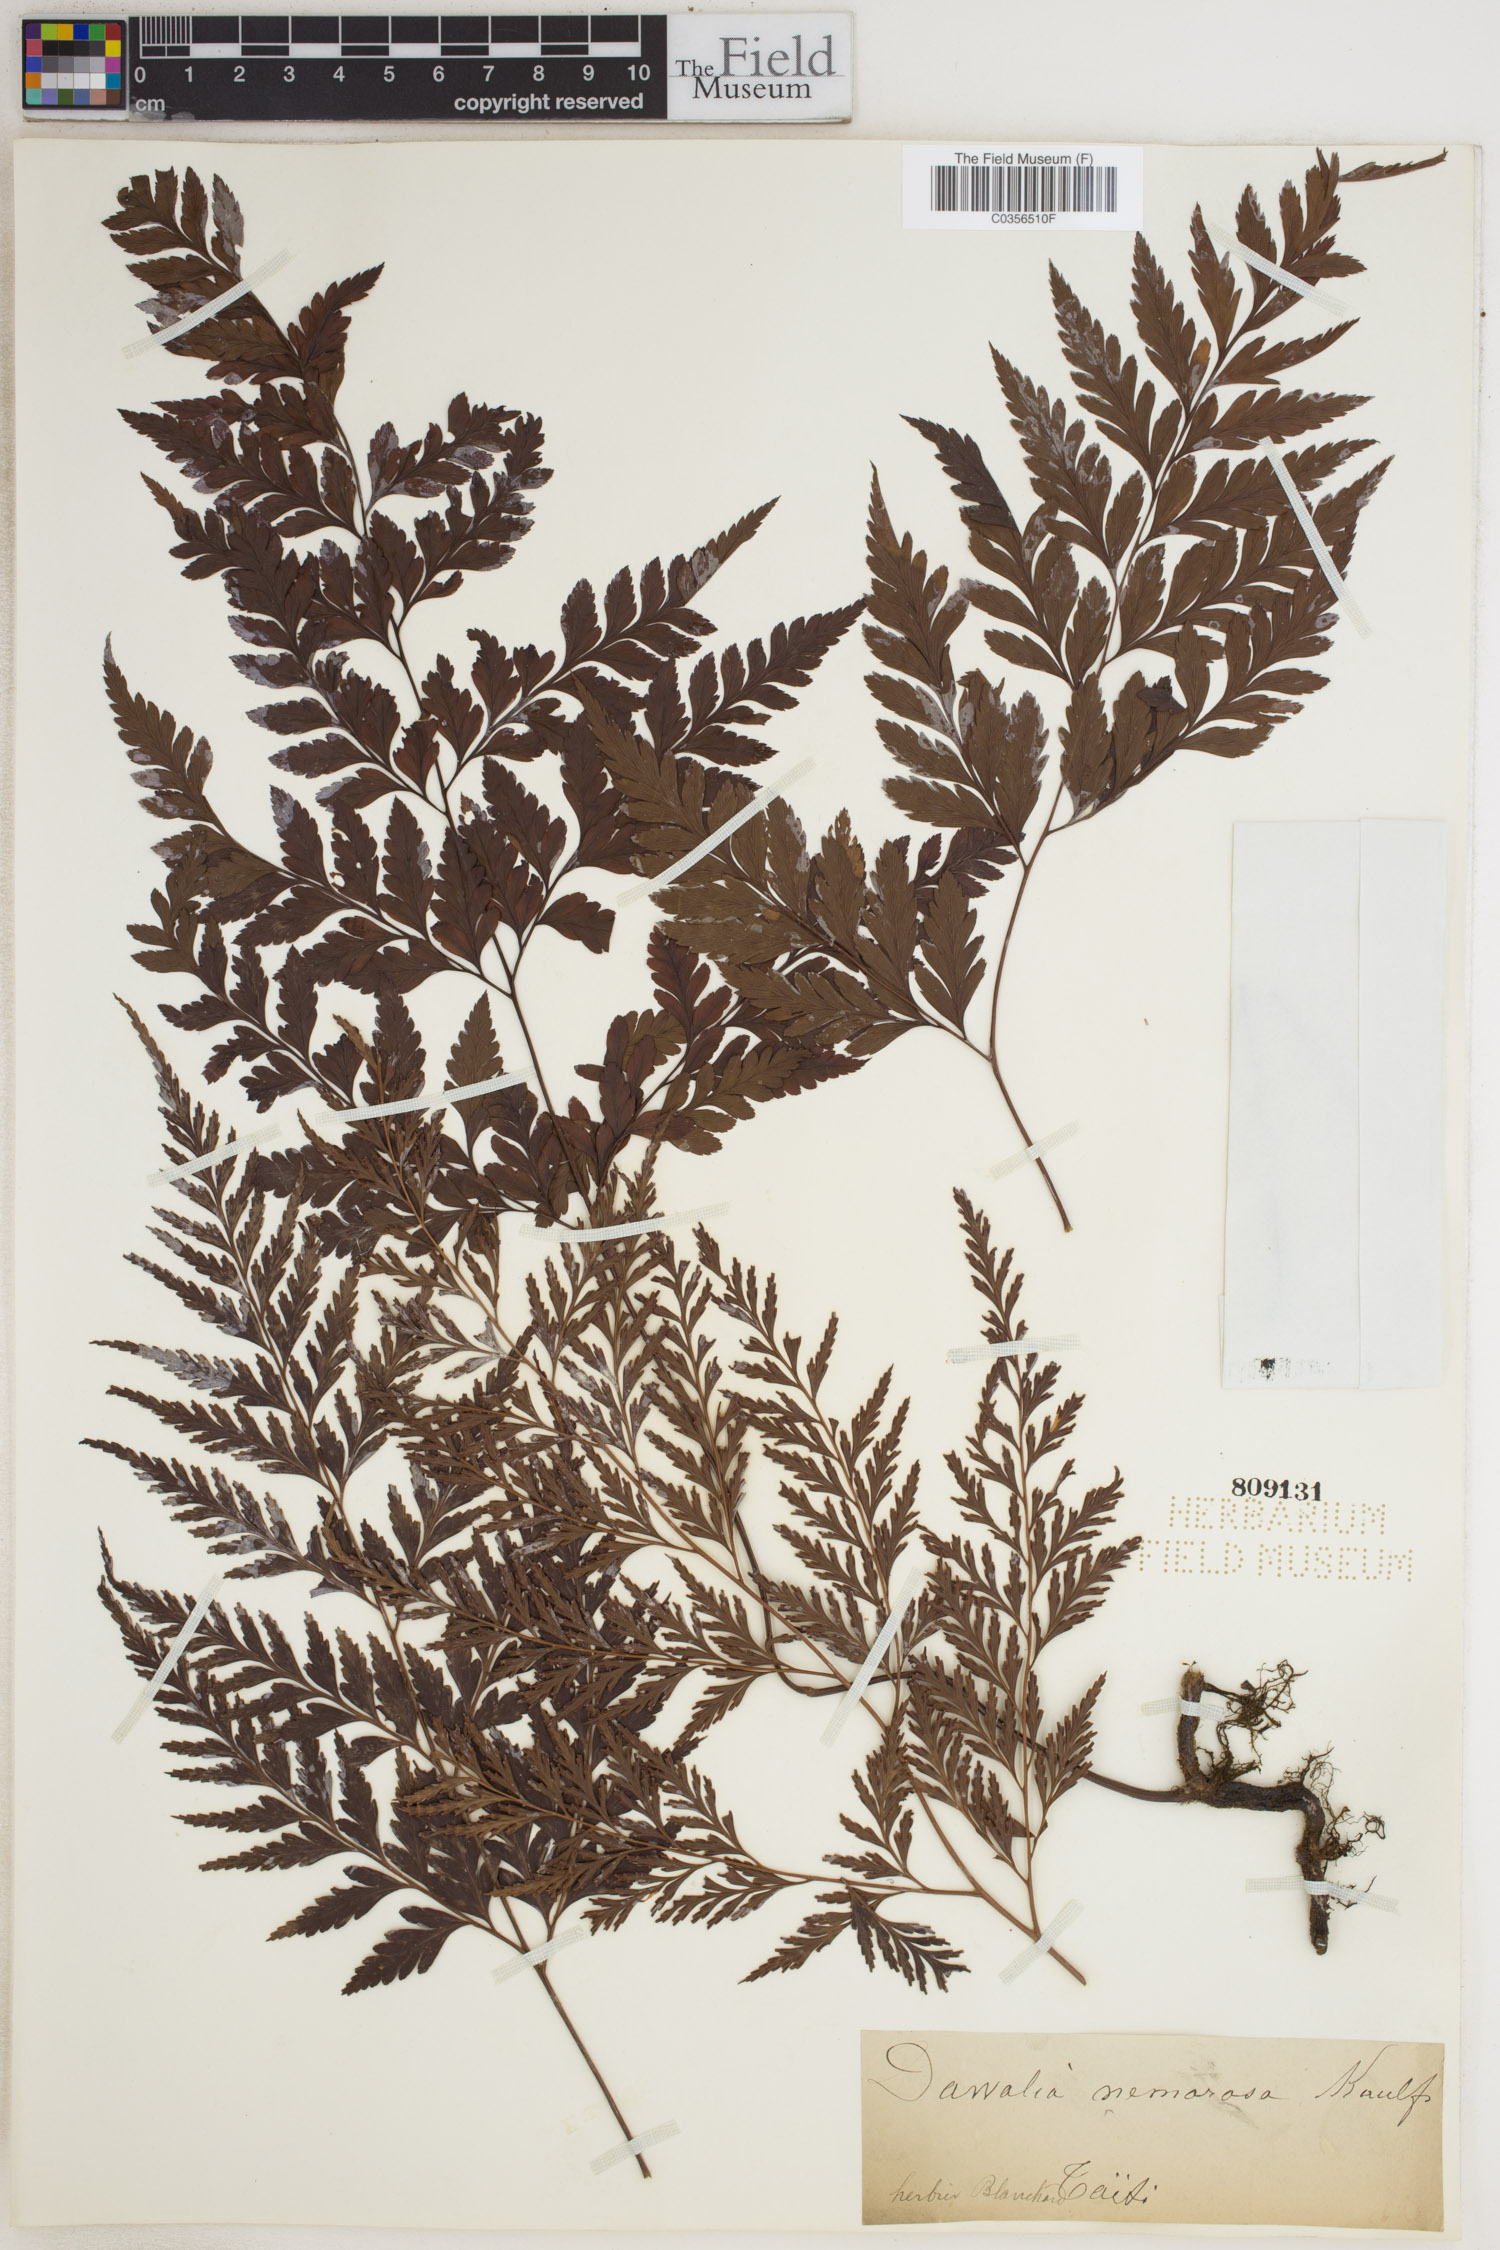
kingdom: Plantae
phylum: Tracheophyta
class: Polypodiopsida
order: Polypodiales
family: Davalliaceae
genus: Davallia
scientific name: Davallia
